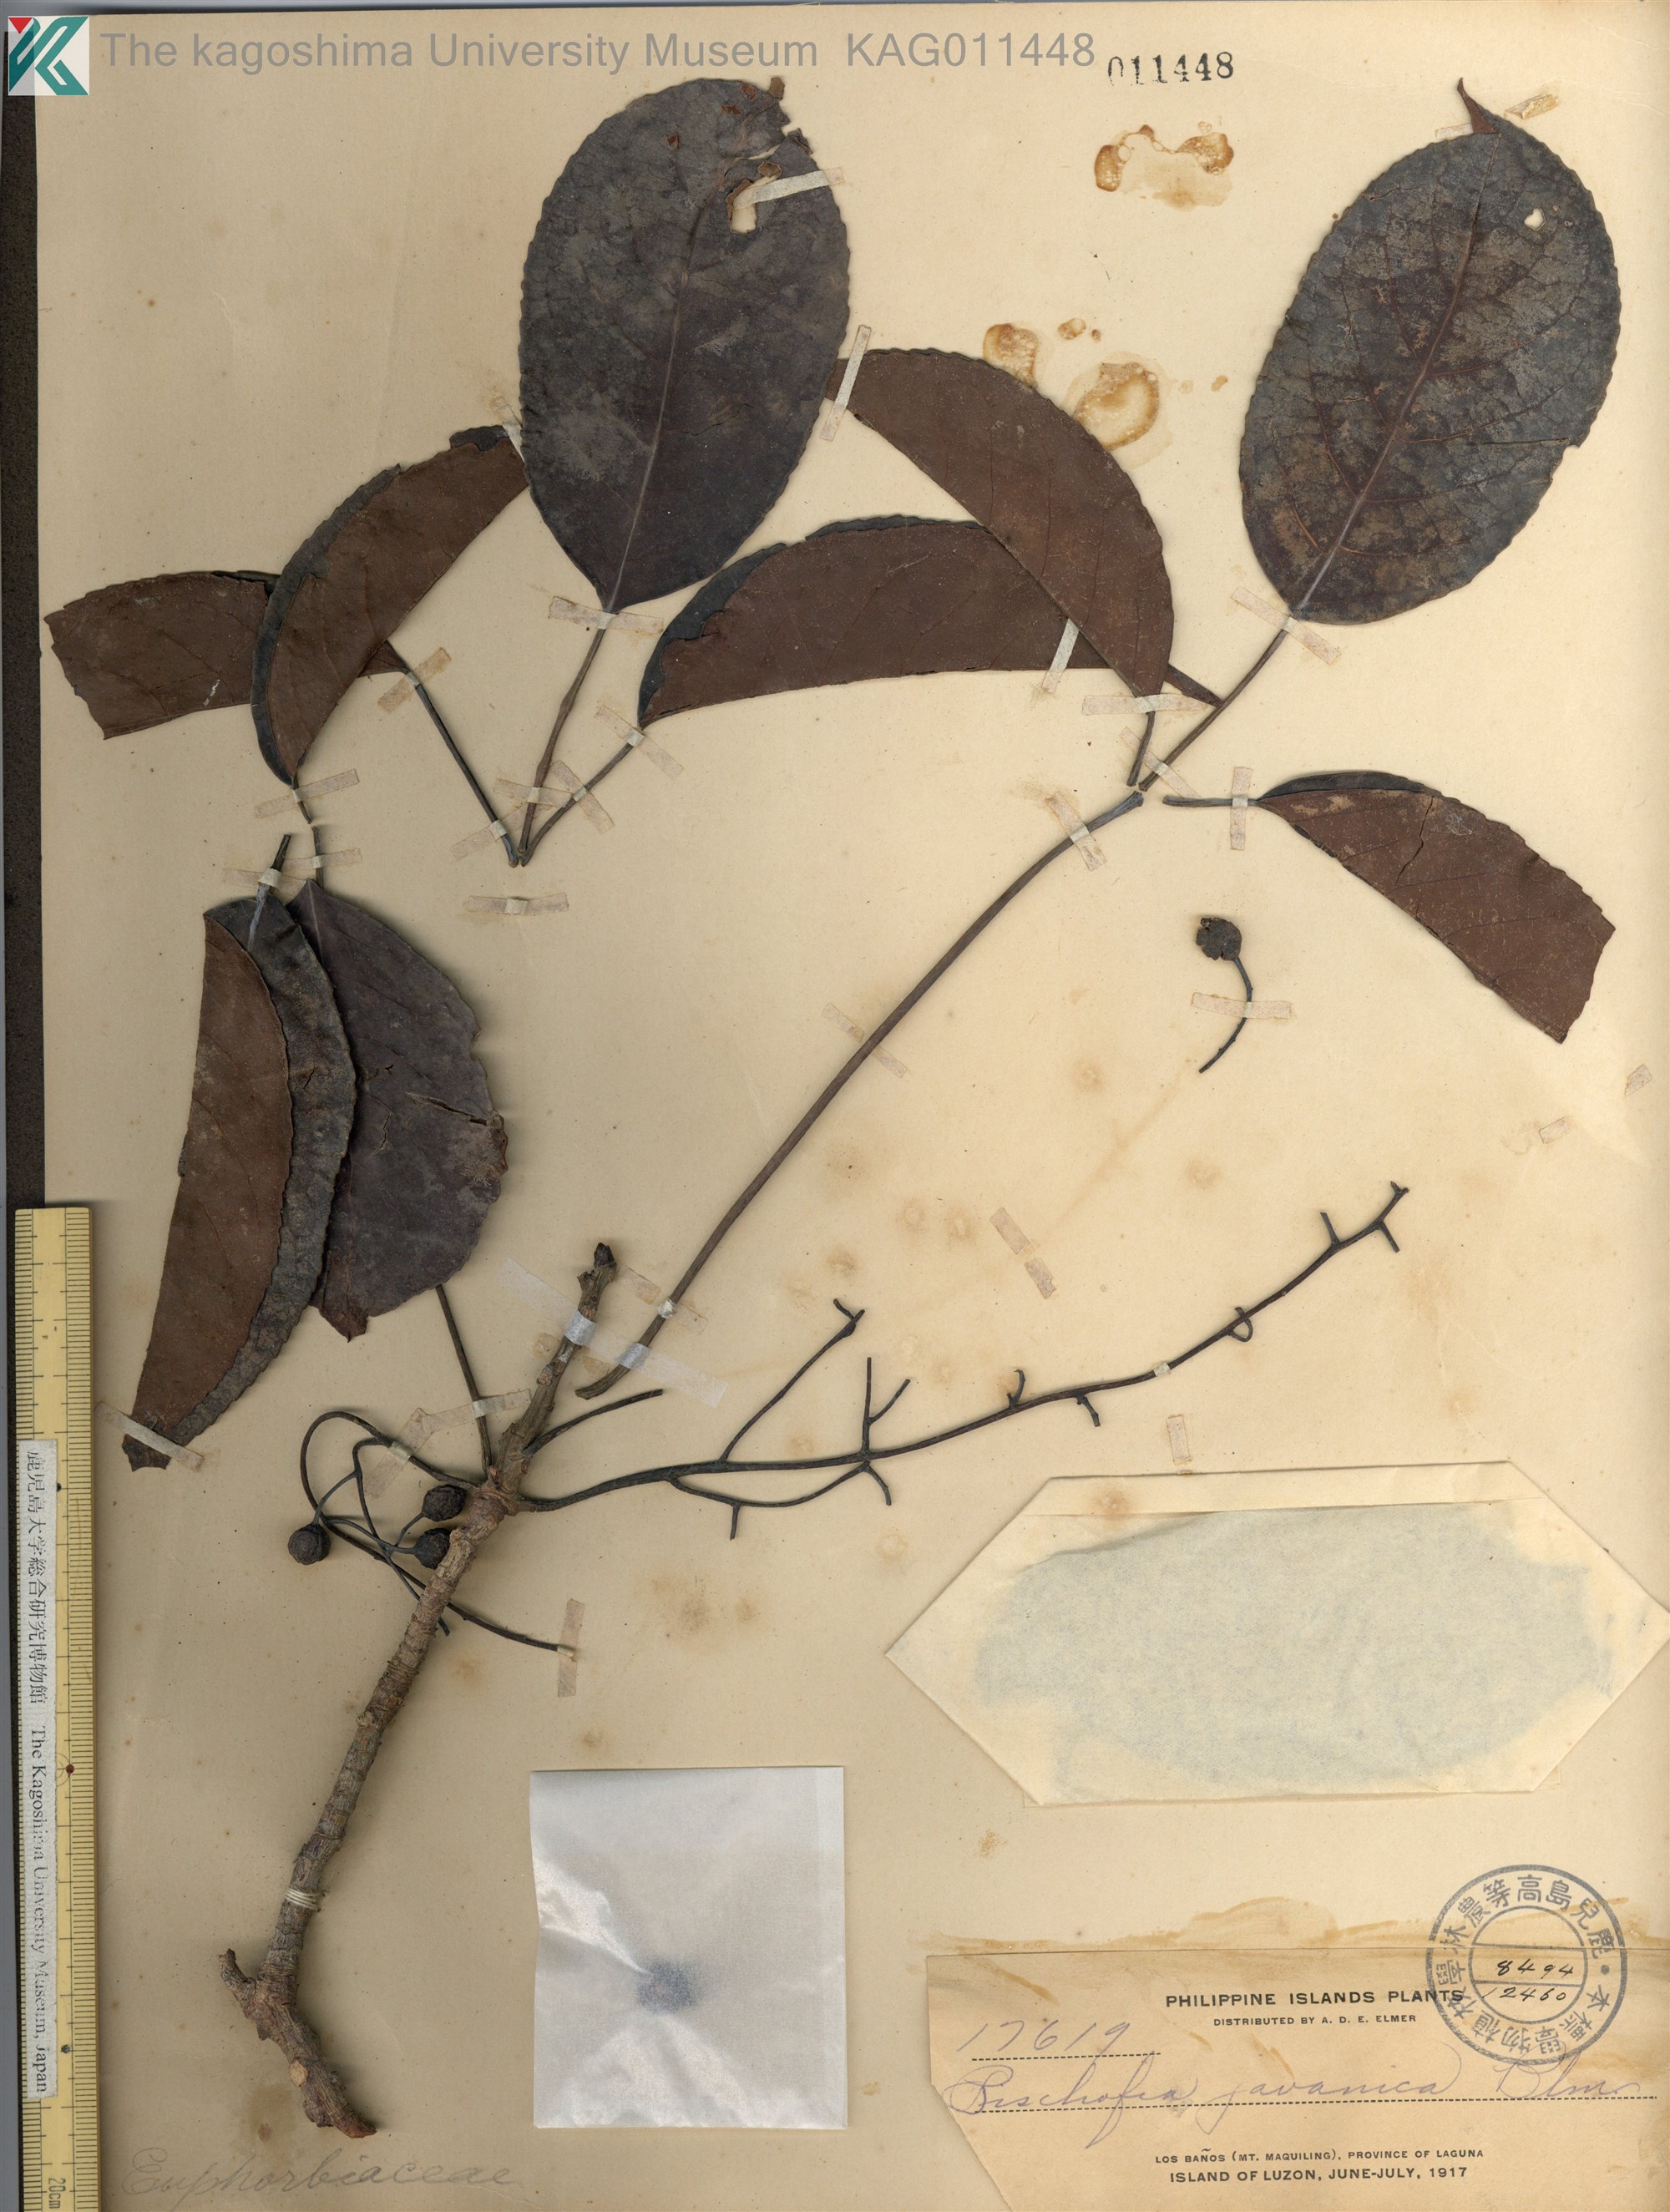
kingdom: Plantae
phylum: Tracheophyta
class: Magnoliopsida
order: Malpighiales
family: Phyllanthaceae
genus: Bischofia
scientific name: Bischofia javanica
